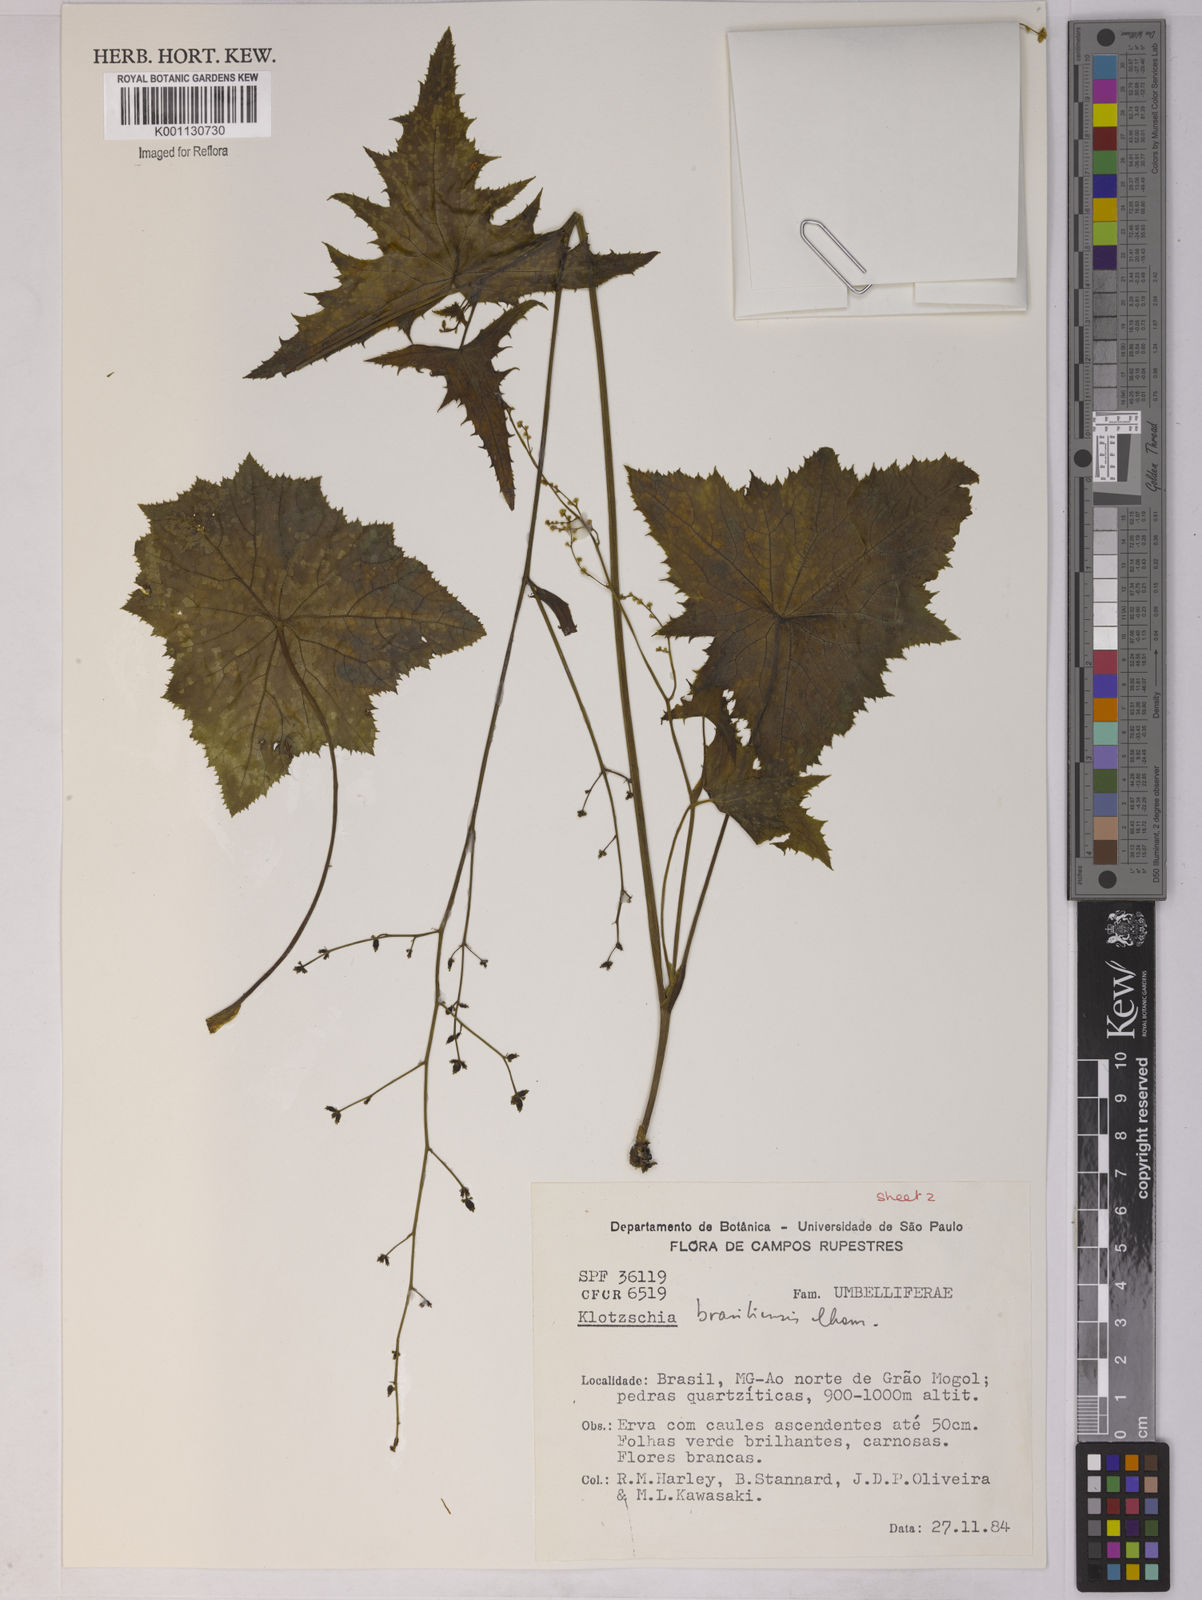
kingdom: Plantae
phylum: Tracheophyta
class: Magnoliopsida
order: Apiales
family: Apiaceae
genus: Klotzschia
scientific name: Klotzschia brasiliensis
